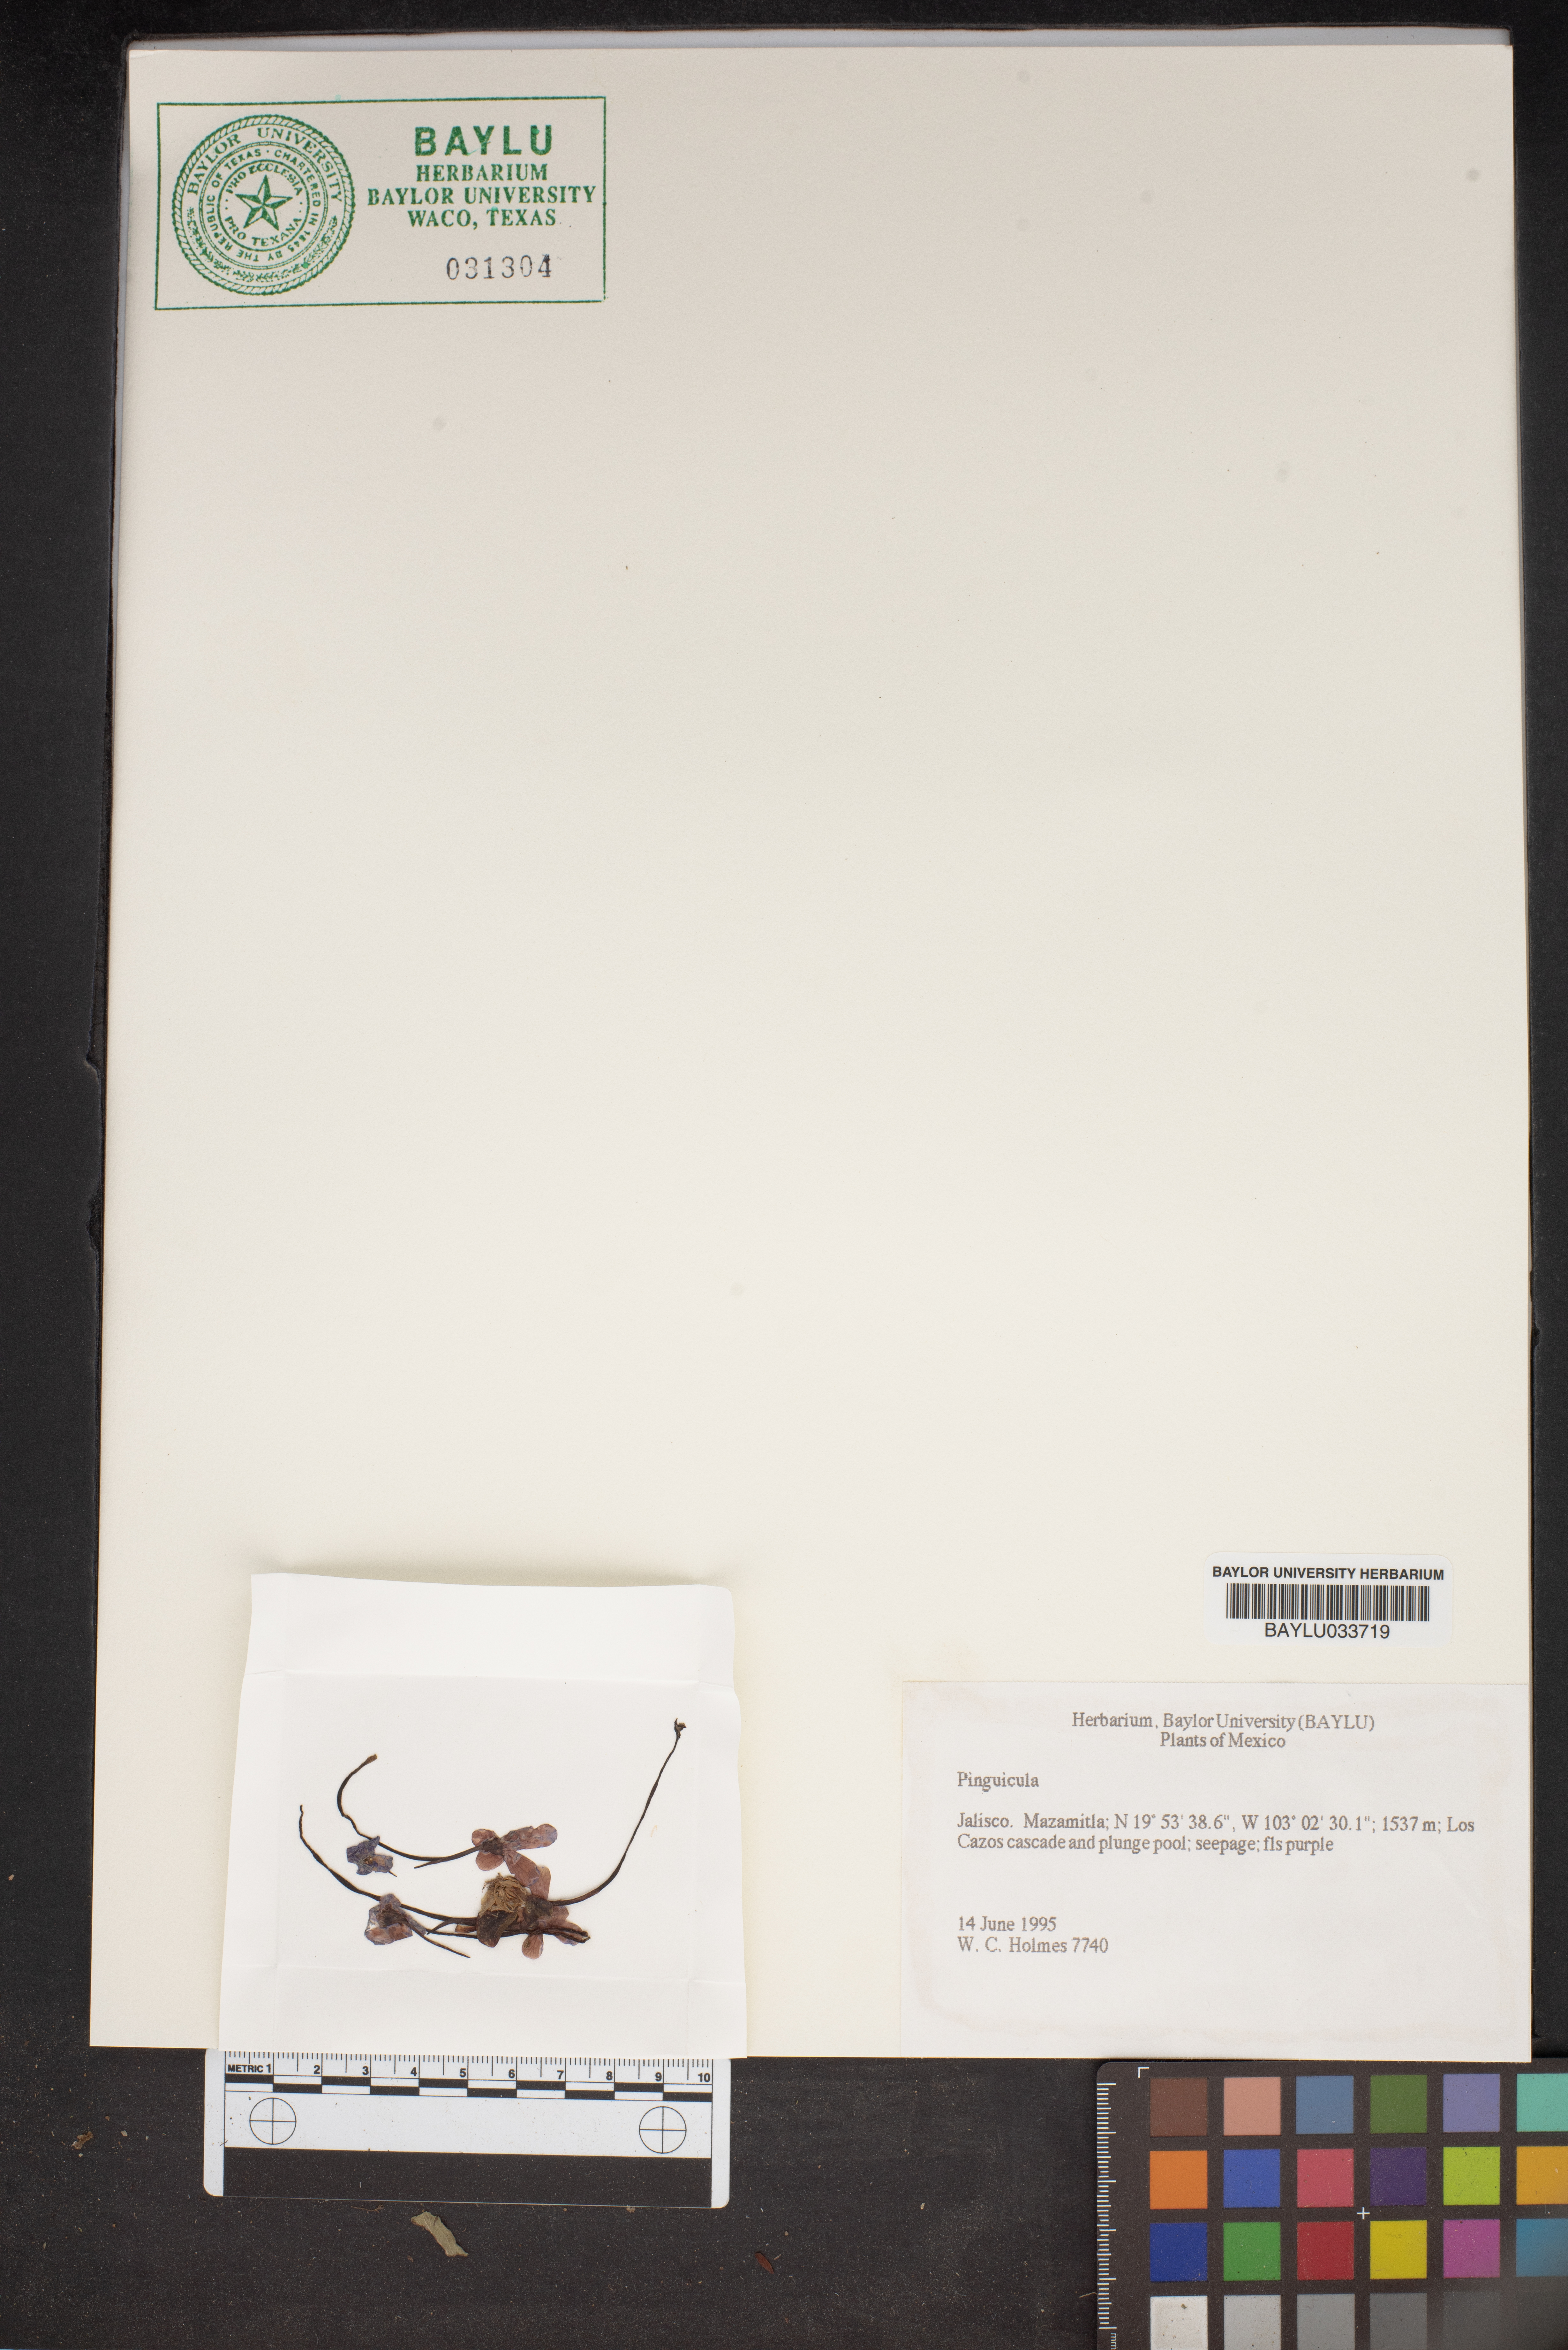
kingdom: Plantae
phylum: Tracheophyta
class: Magnoliopsida
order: Lamiales
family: Lentibulariaceae
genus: Pinguicula
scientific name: Pinguicula
